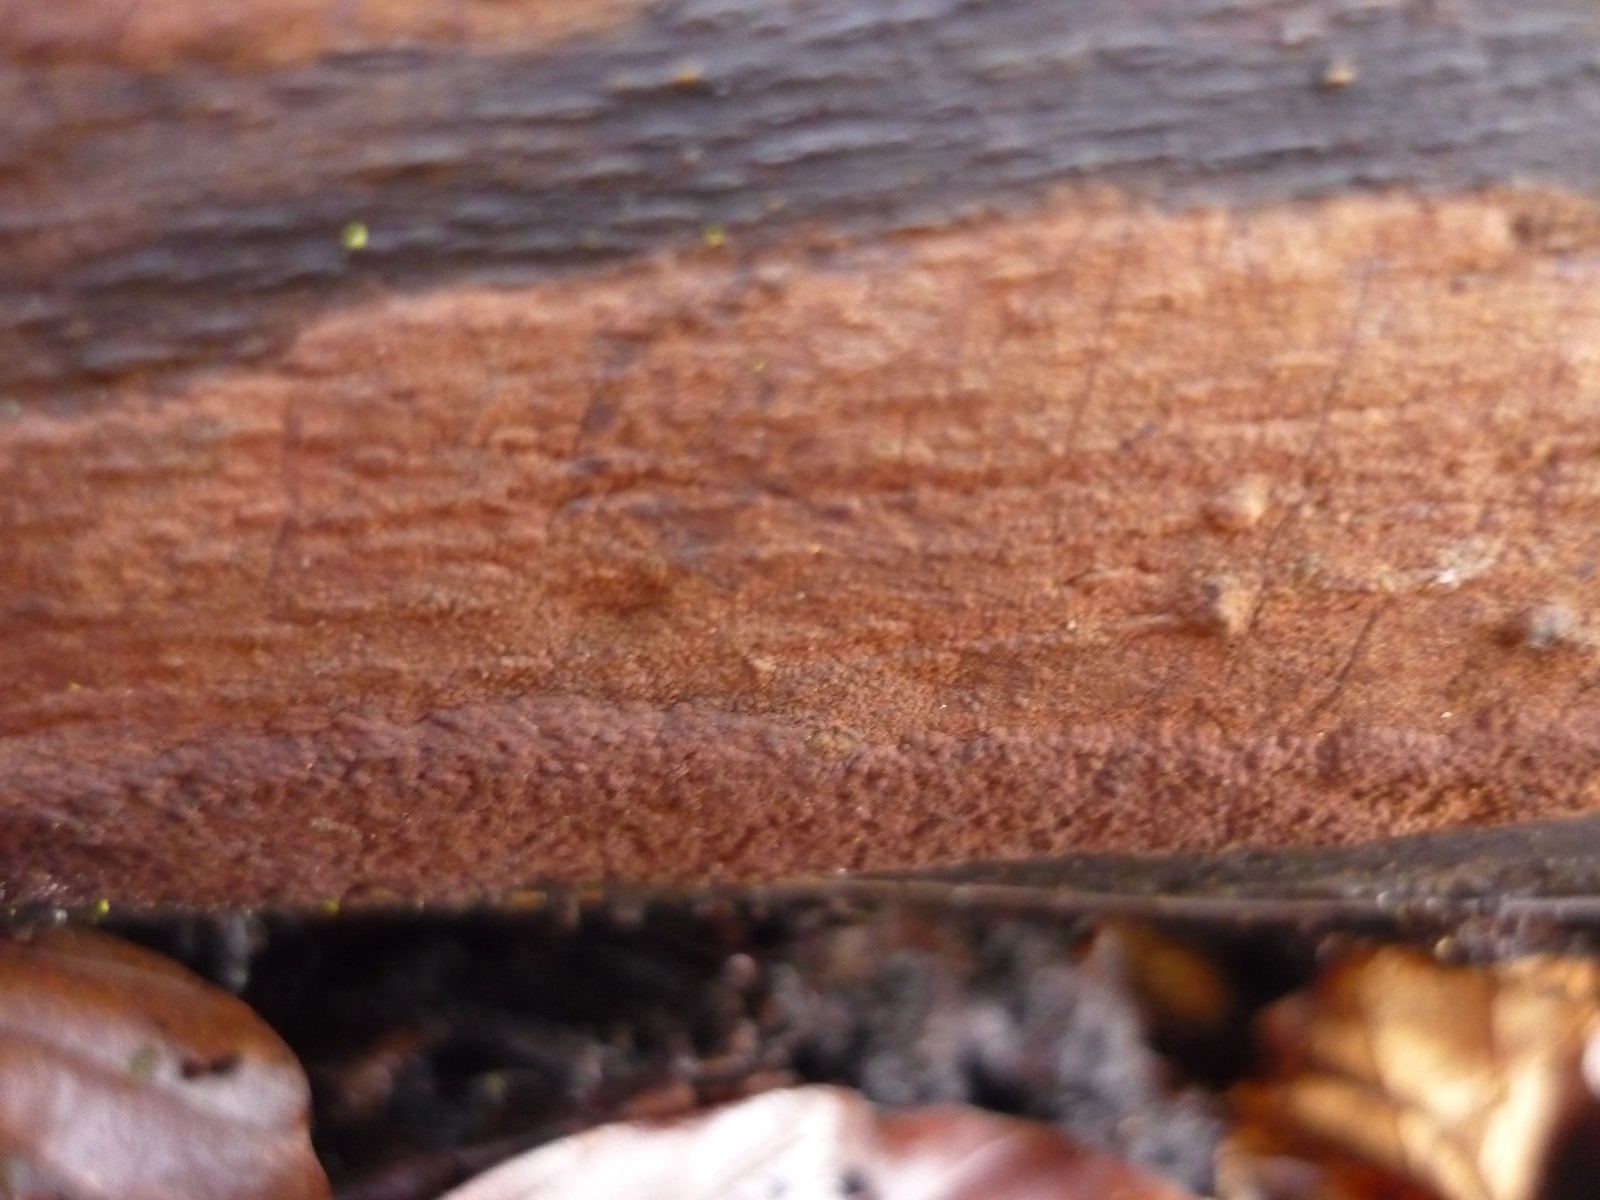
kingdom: Fungi
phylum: Ascomycota
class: Sordariomycetes
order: Xylariales
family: Hypoxylaceae
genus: Hypoxylon
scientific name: Hypoxylon macrocarpum
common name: skorpe-kulbær
